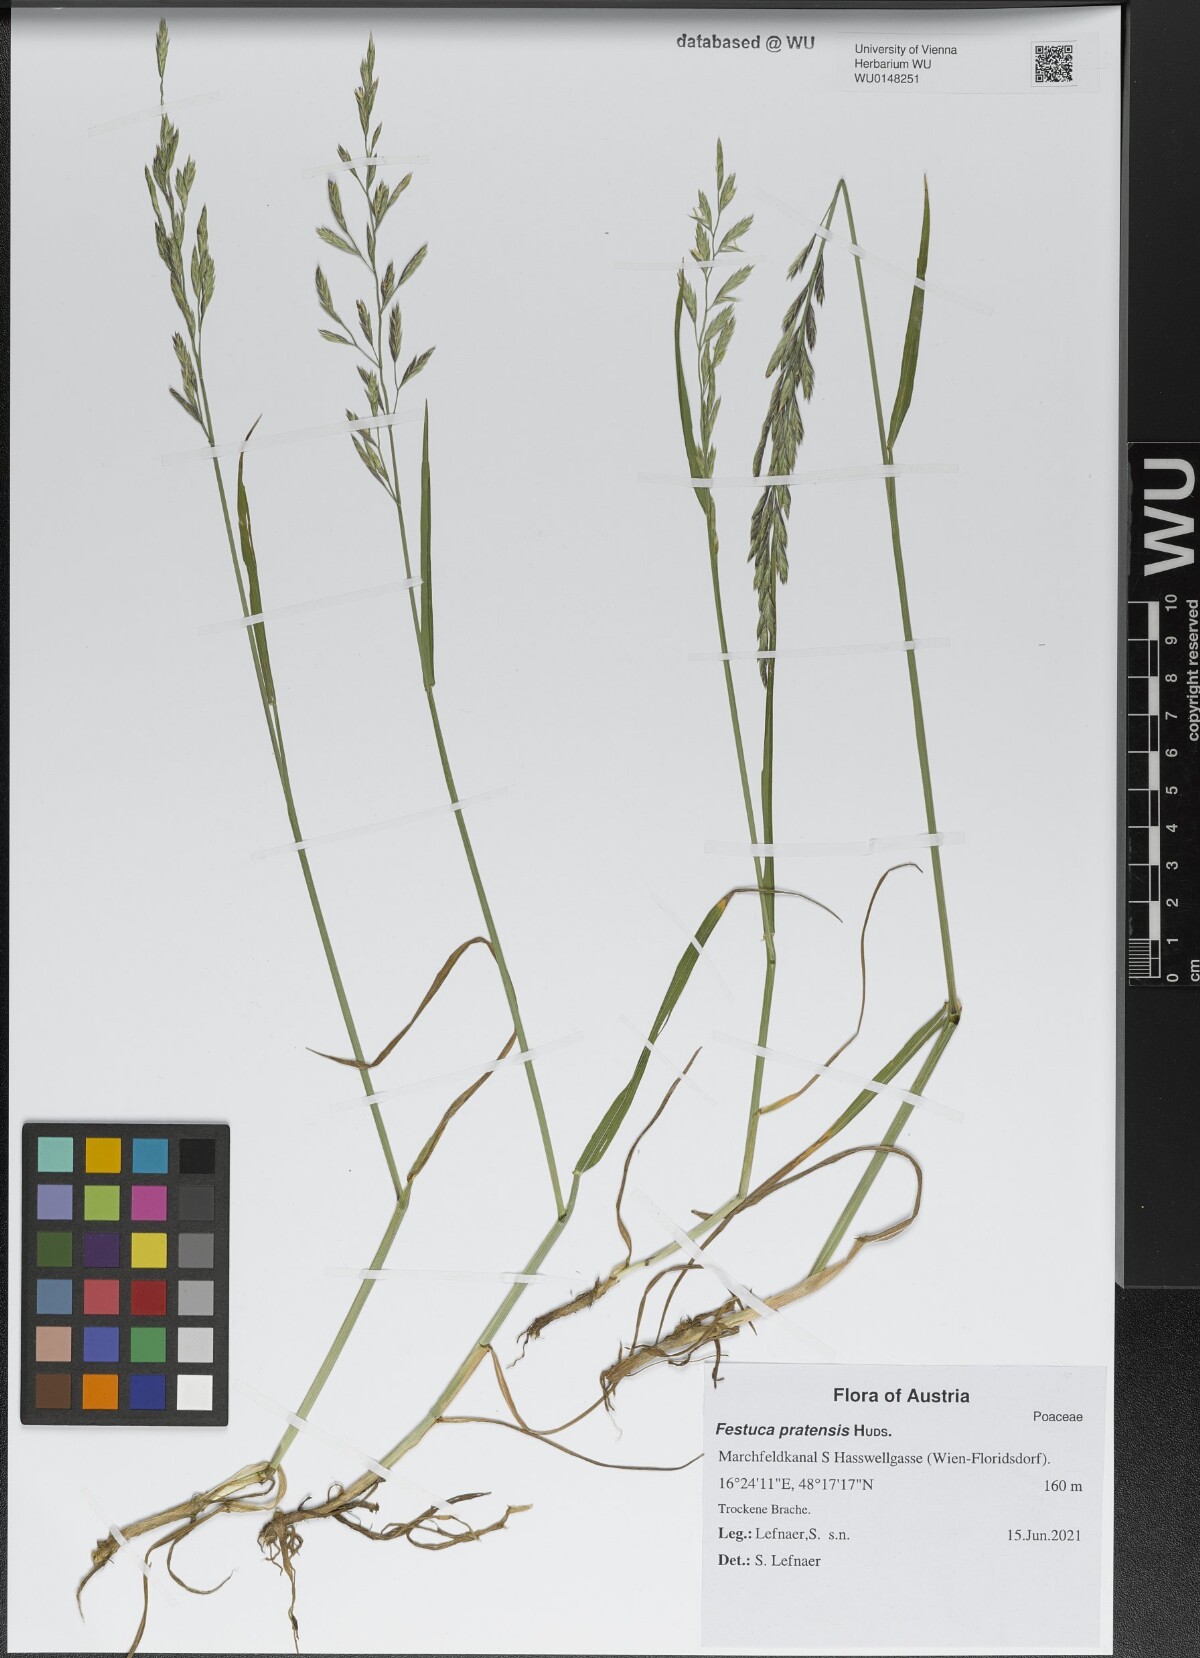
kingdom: Plantae
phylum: Tracheophyta
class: Liliopsida
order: Poales
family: Poaceae
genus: Lolium
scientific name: Lolium pratense
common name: Dover grass
